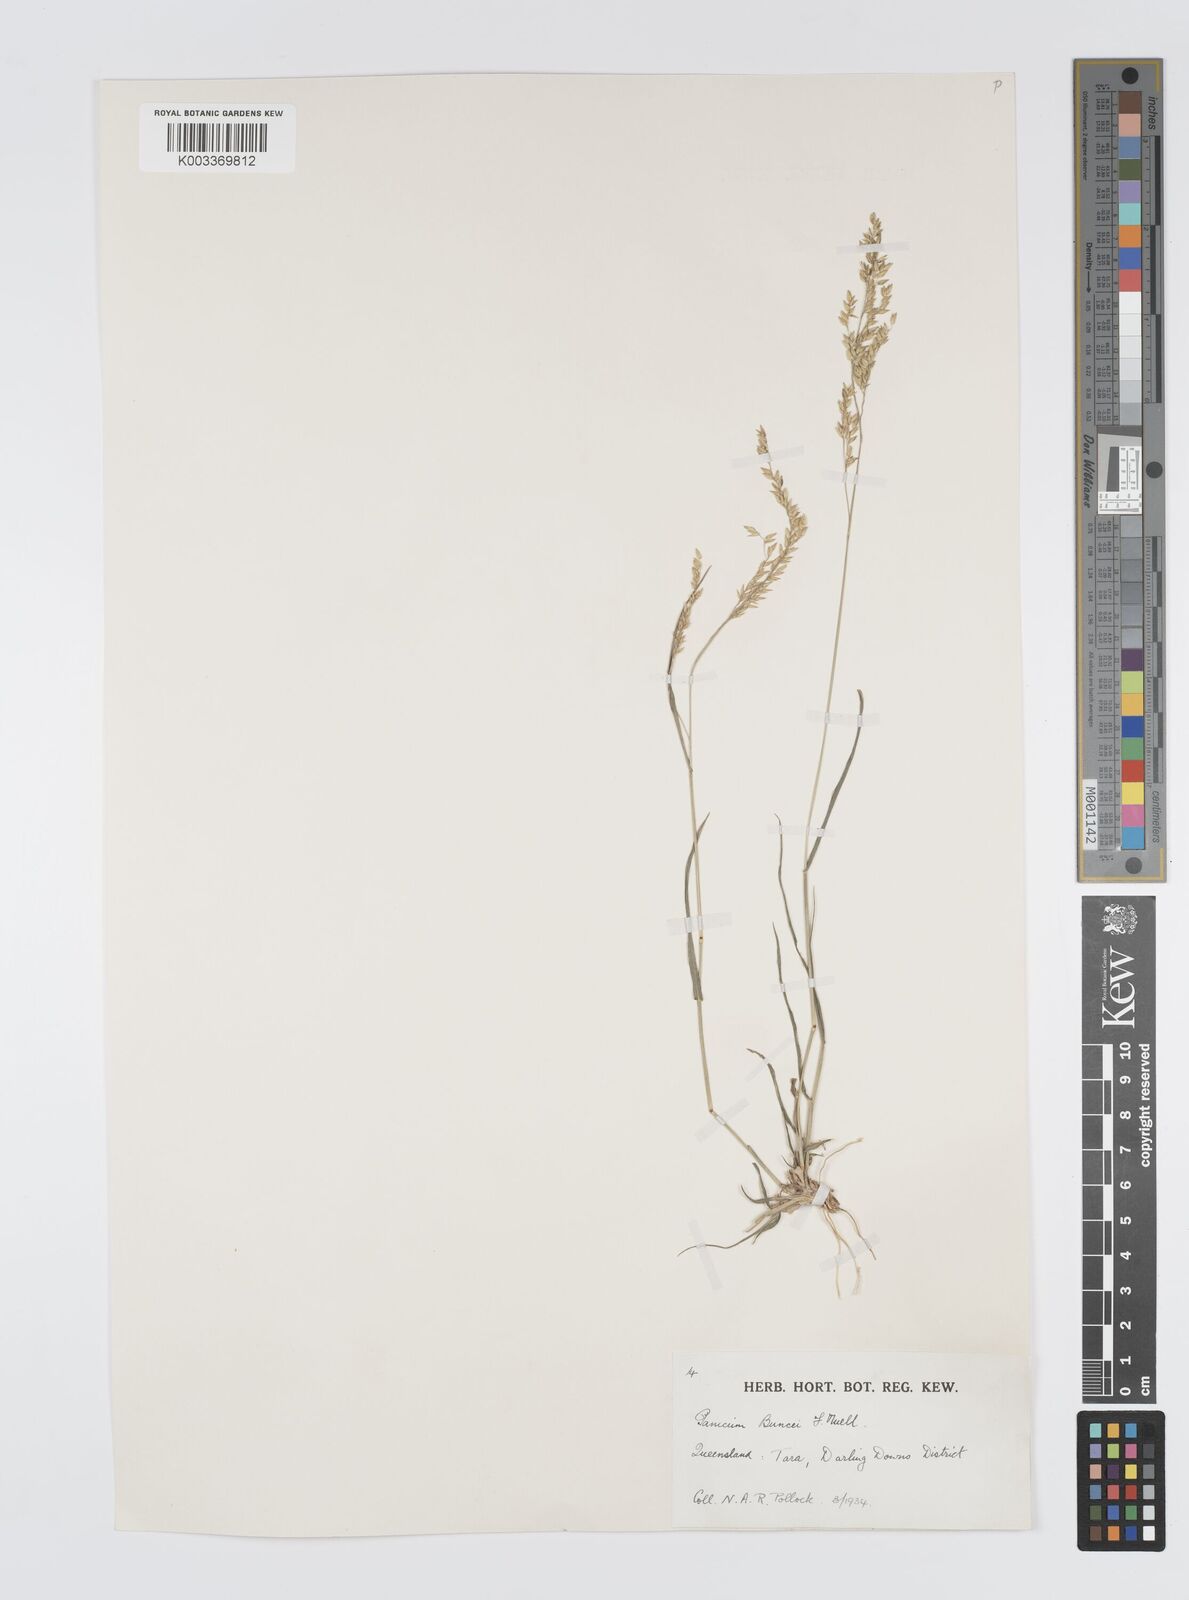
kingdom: Plantae
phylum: Tracheophyta
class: Liliopsida
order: Poales
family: Poaceae
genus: Panicum
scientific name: Panicum buncei
